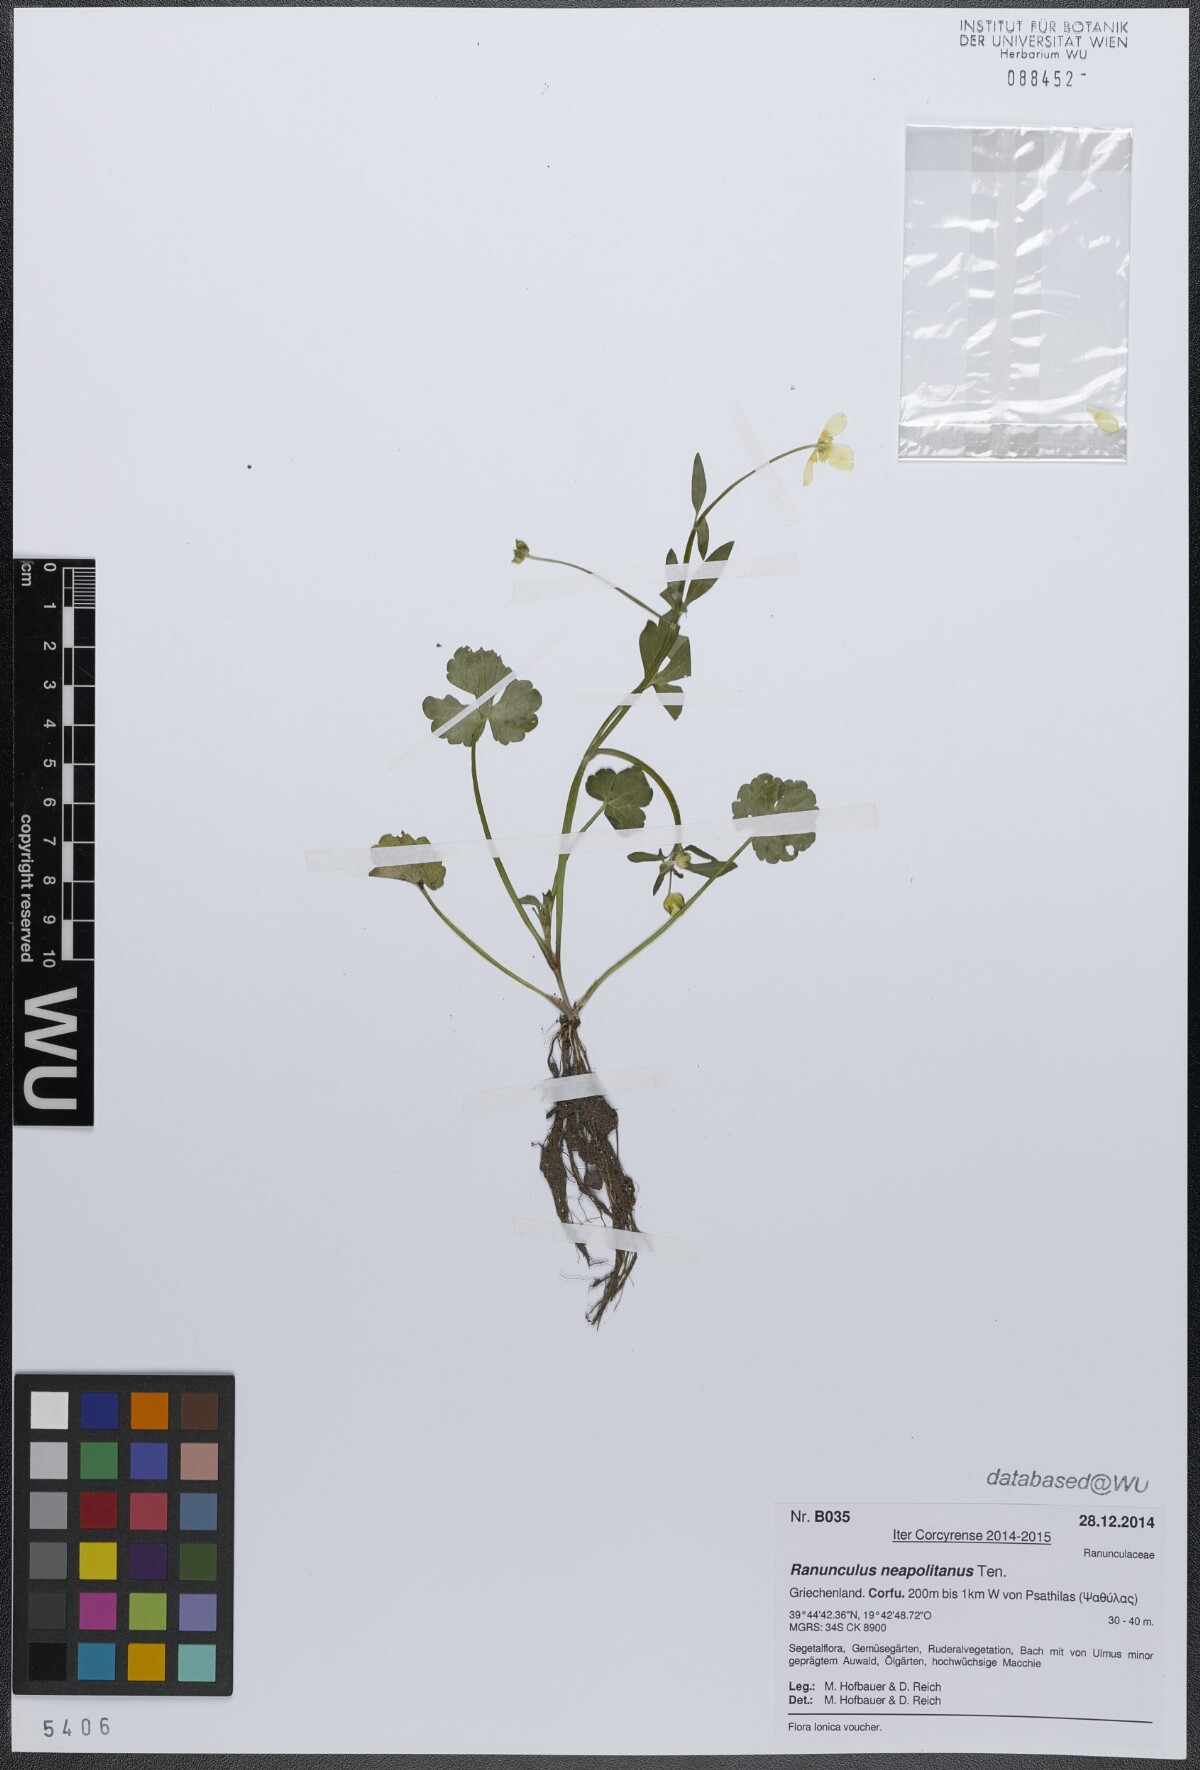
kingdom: Plantae
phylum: Tracheophyta
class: Magnoliopsida
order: Ranunculales
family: Ranunculaceae
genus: Ranunculus
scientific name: Ranunculus neapolitanus
